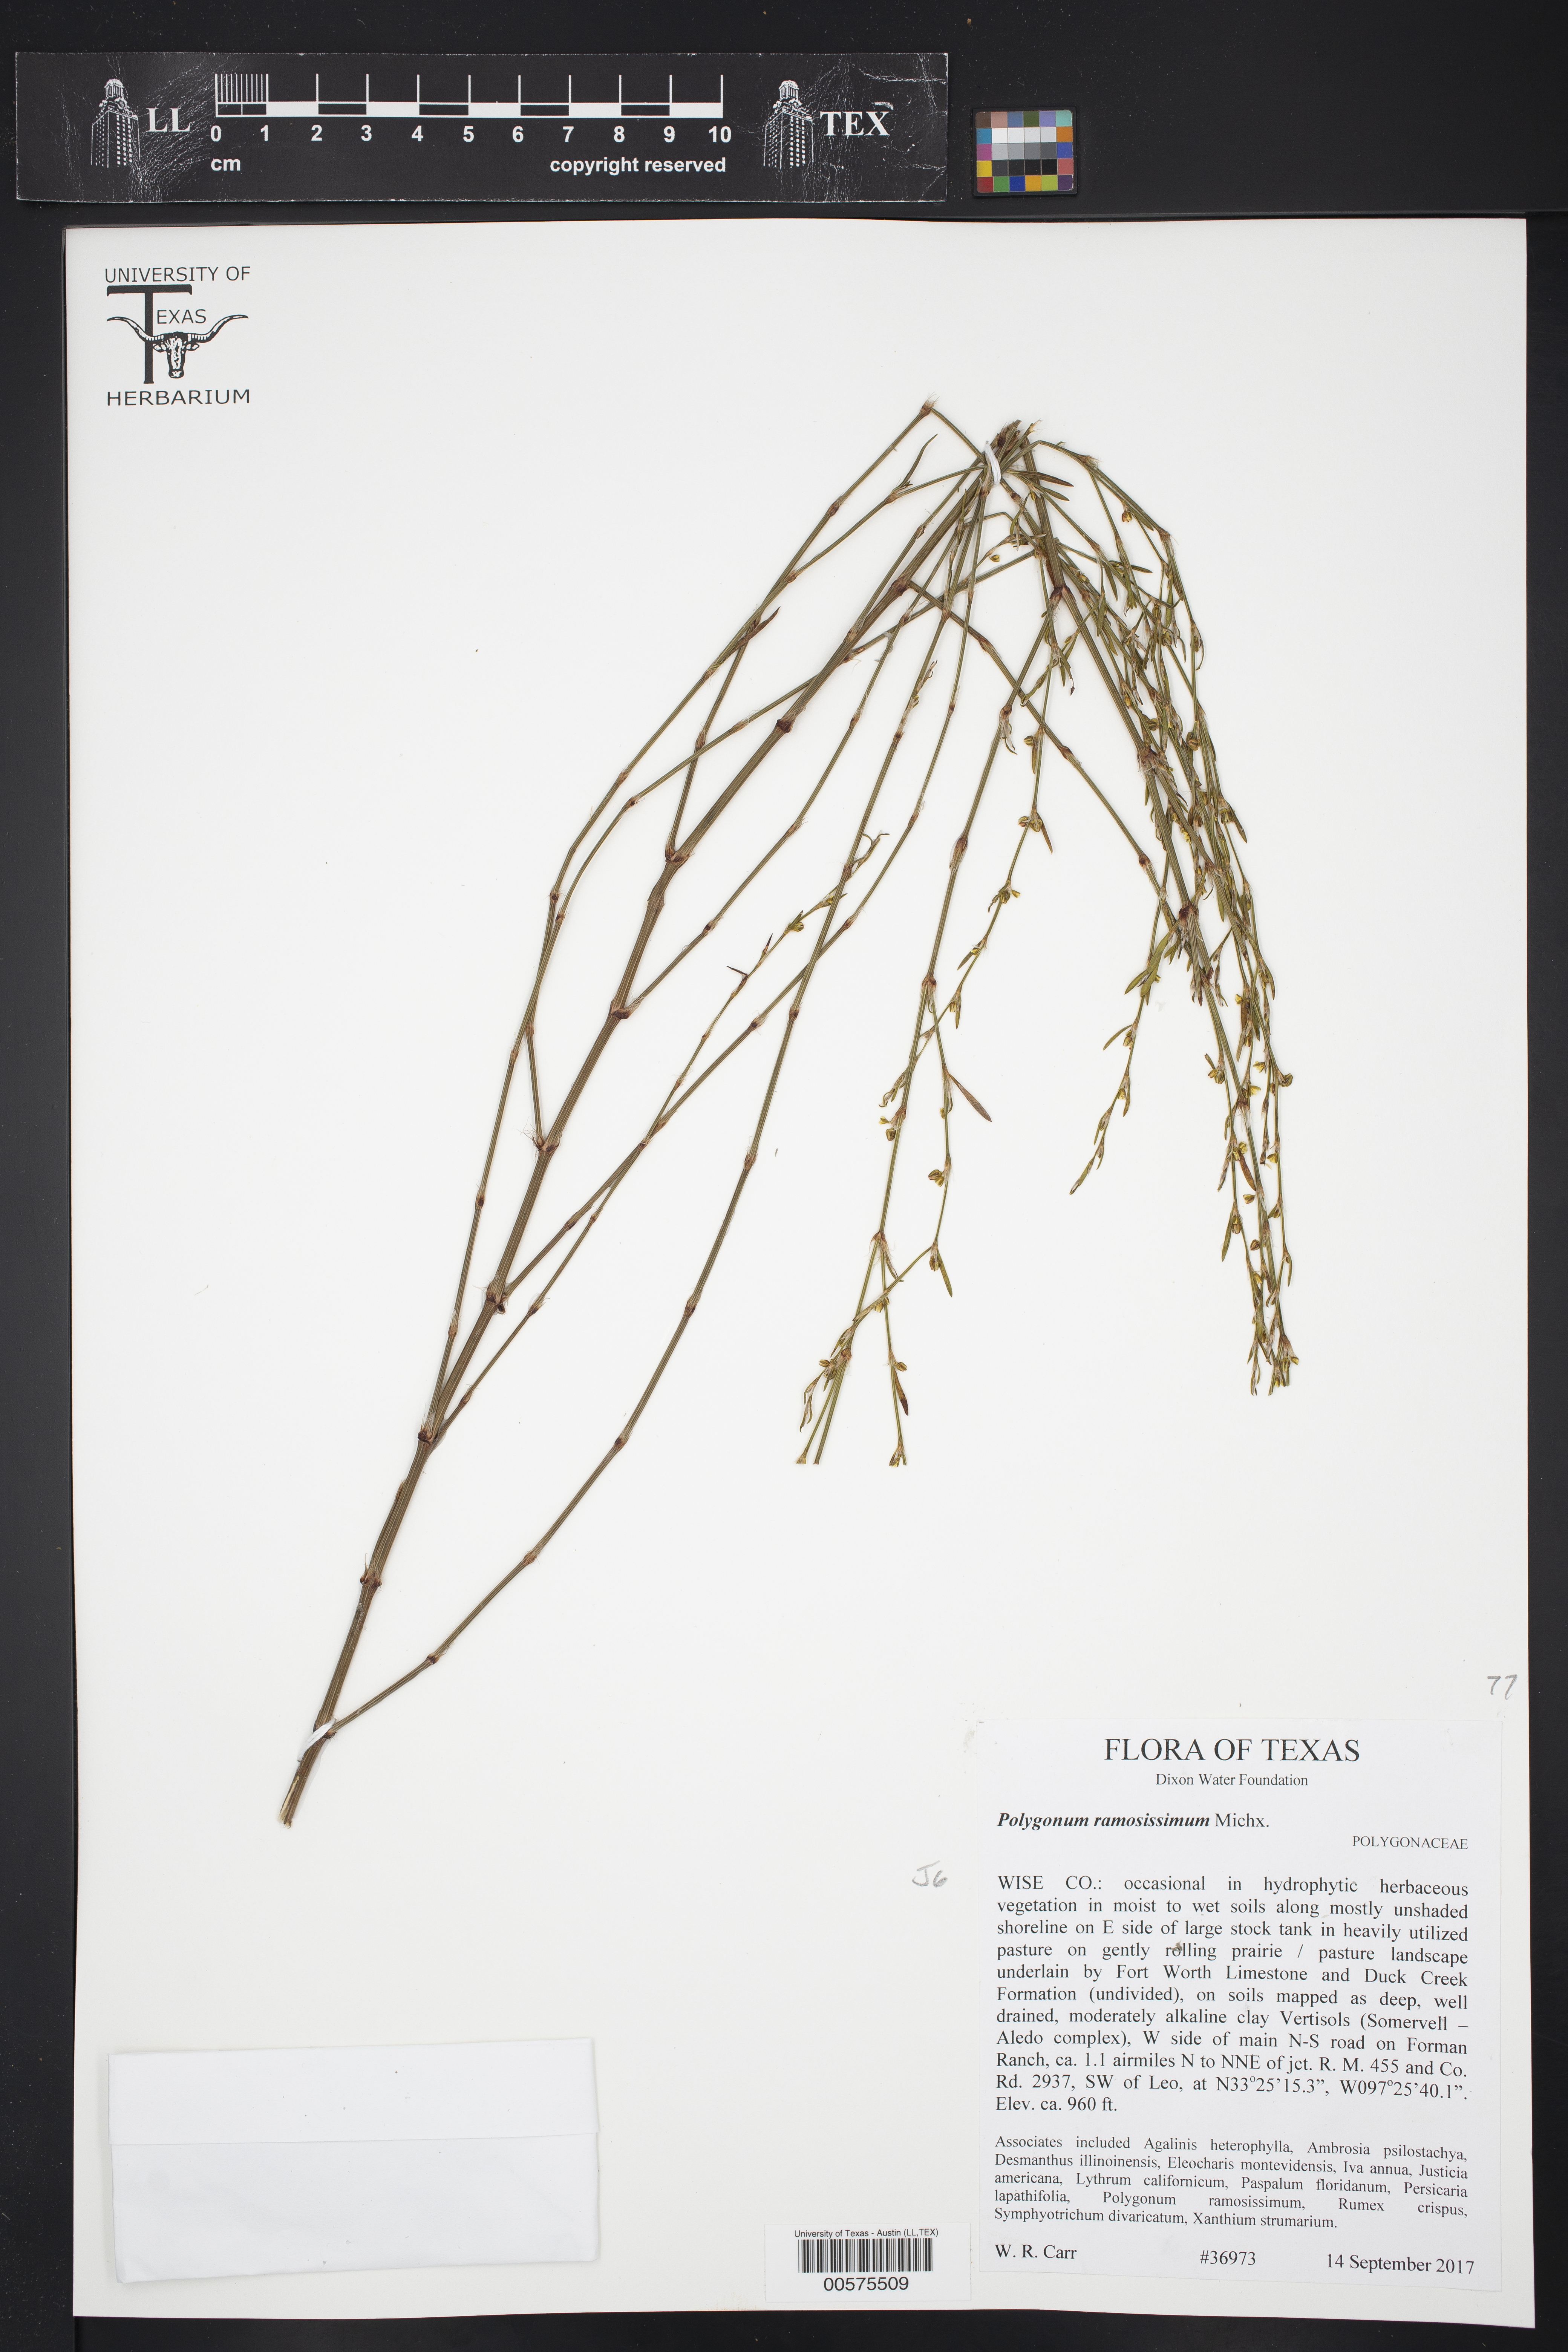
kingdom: Plantae
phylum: Tracheophyta
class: Magnoliopsida
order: Caryophyllales
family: Polygonaceae
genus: Polygonum
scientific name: Polygonum ramosissimum
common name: Bushy knotweed
